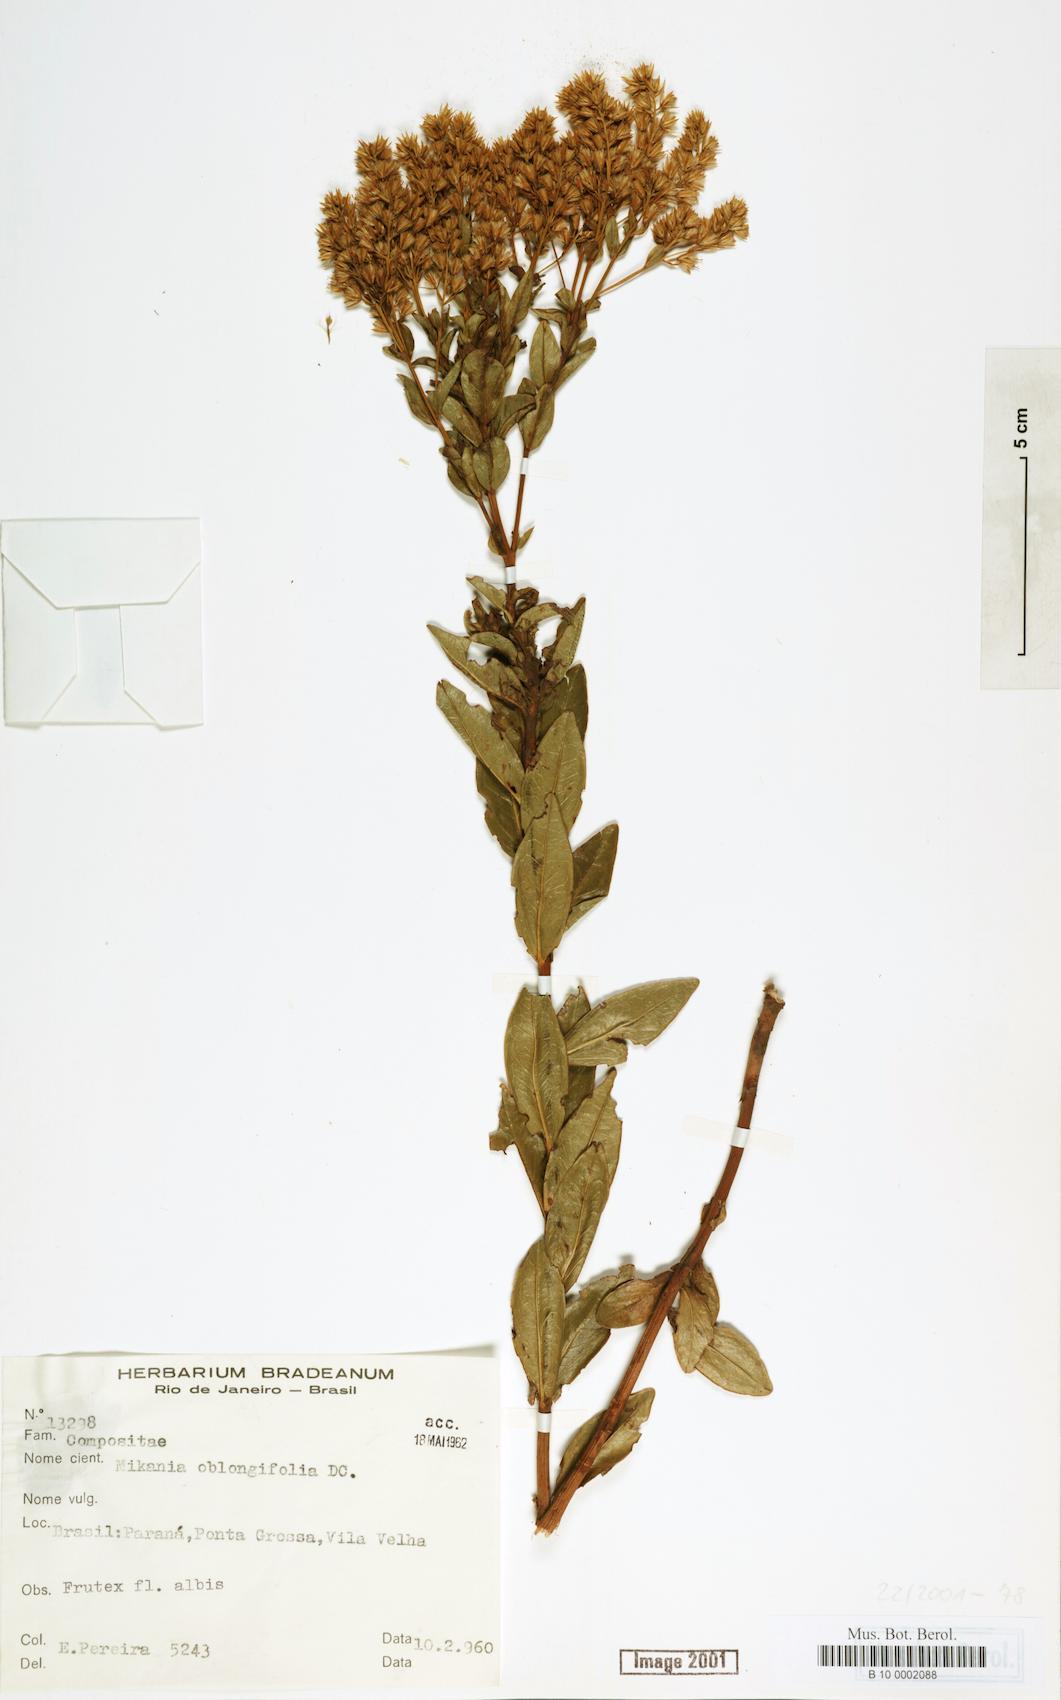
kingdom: Plantae
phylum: Tracheophyta
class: Magnoliopsida
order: Asterales
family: Asteraceae
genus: Mikania
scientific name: Mikania oblongifolia
